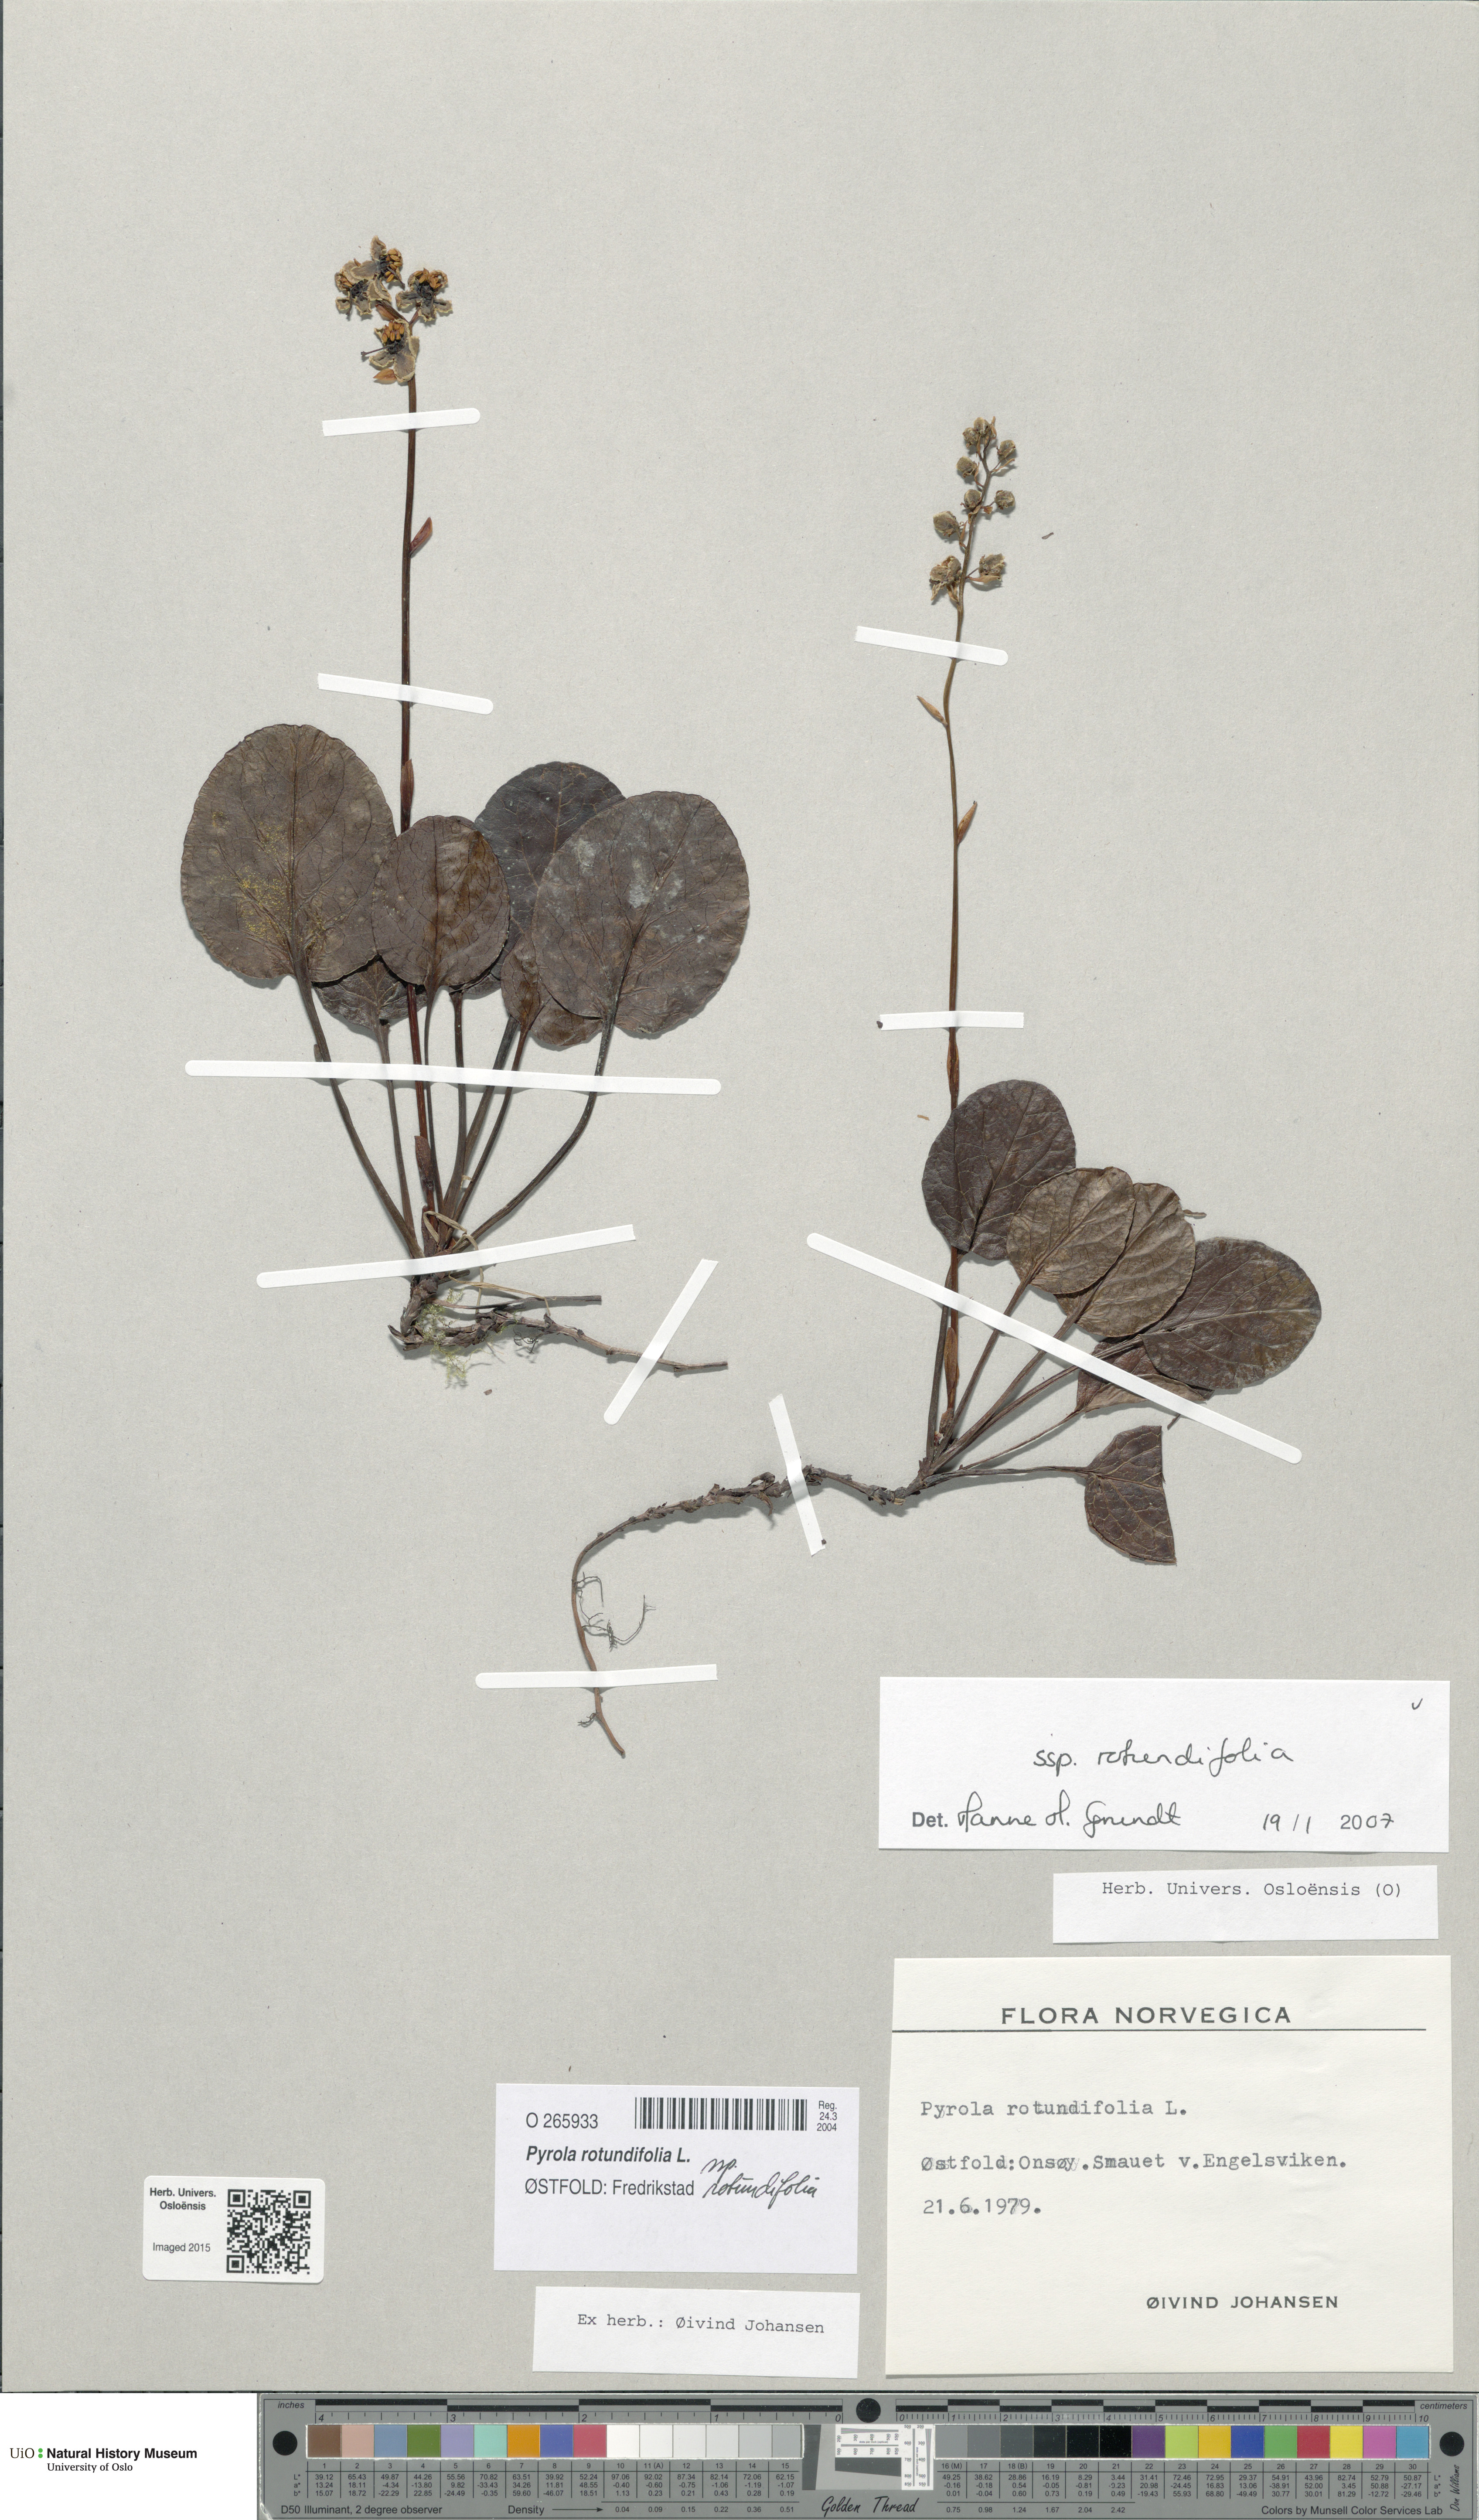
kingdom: Plantae
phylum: Tracheophyta
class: Magnoliopsida
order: Ericales
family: Ericaceae
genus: Pyrola
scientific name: Pyrola rotundifolia
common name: Round-leaved wintergreen
